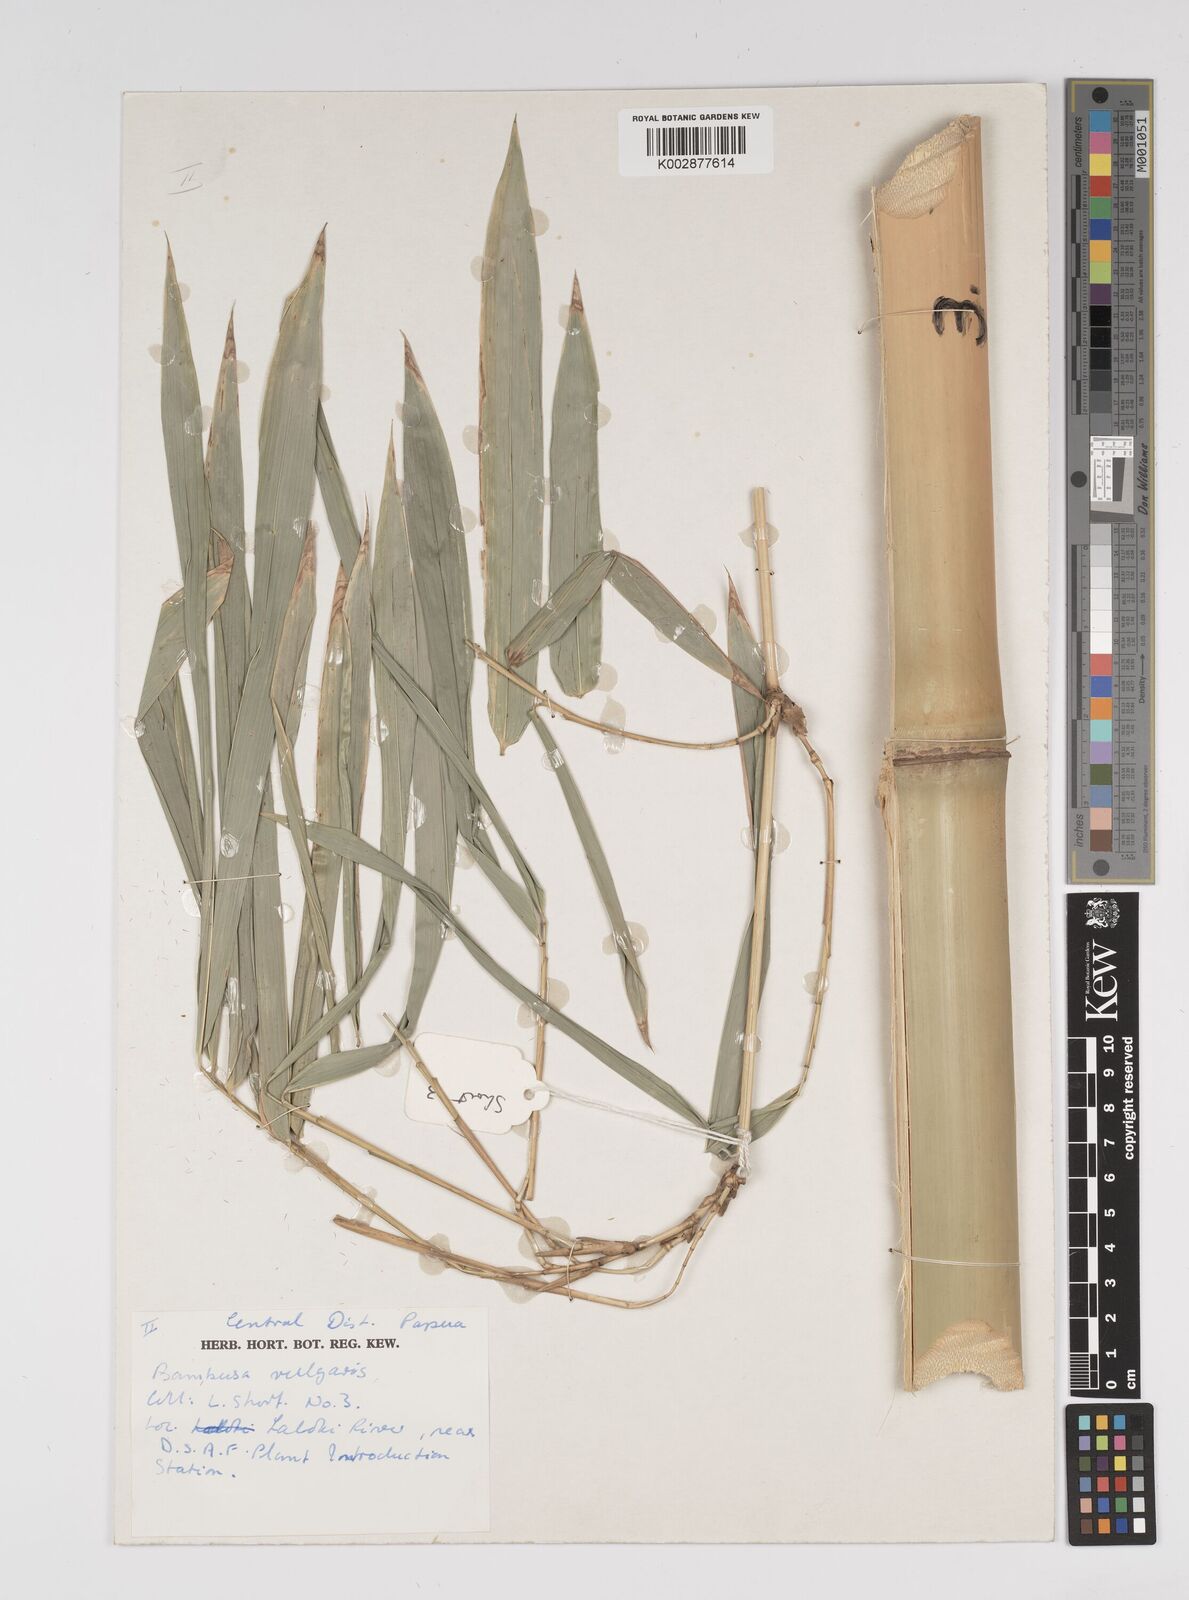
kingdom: Plantae
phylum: Tracheophyta
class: Liliopsida
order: Poales
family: Poaceae
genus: Bambusa
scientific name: Bambusa balcooa
